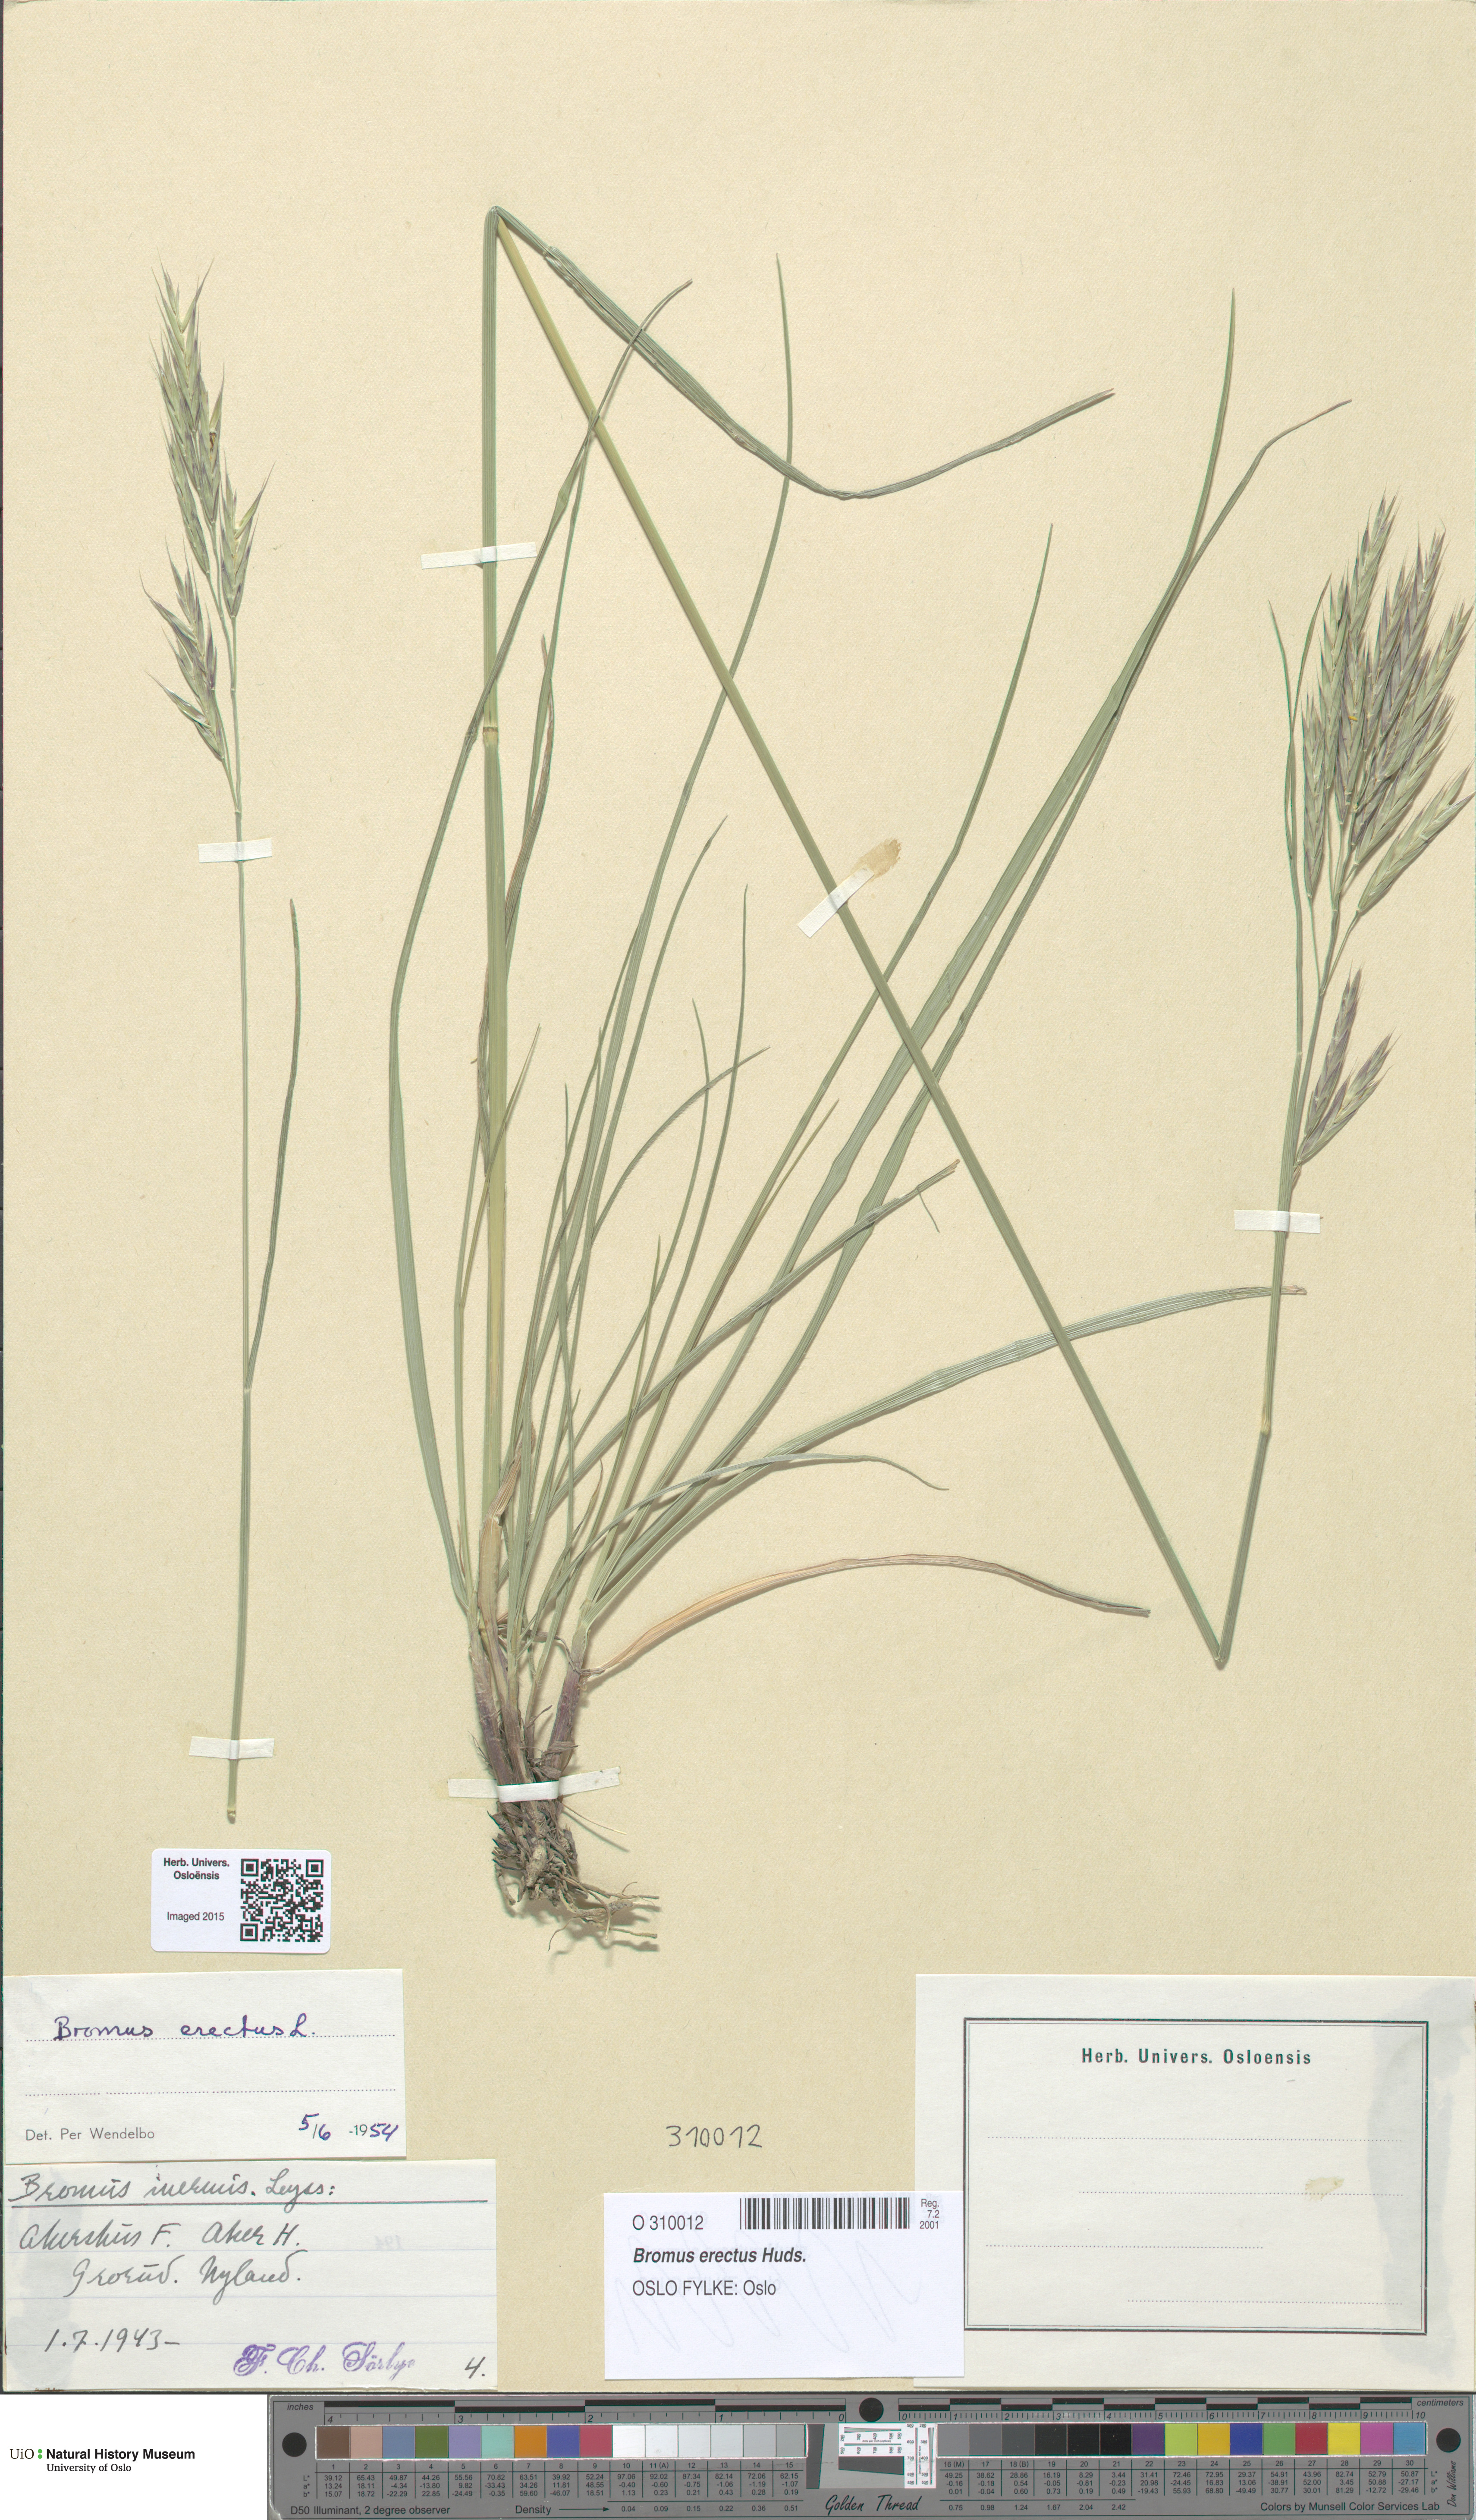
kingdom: Plantae
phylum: Tracheophyta
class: Liliopsida
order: Poales
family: Poaceae
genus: Bromus
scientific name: Bromus erectus
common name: Erect brome
